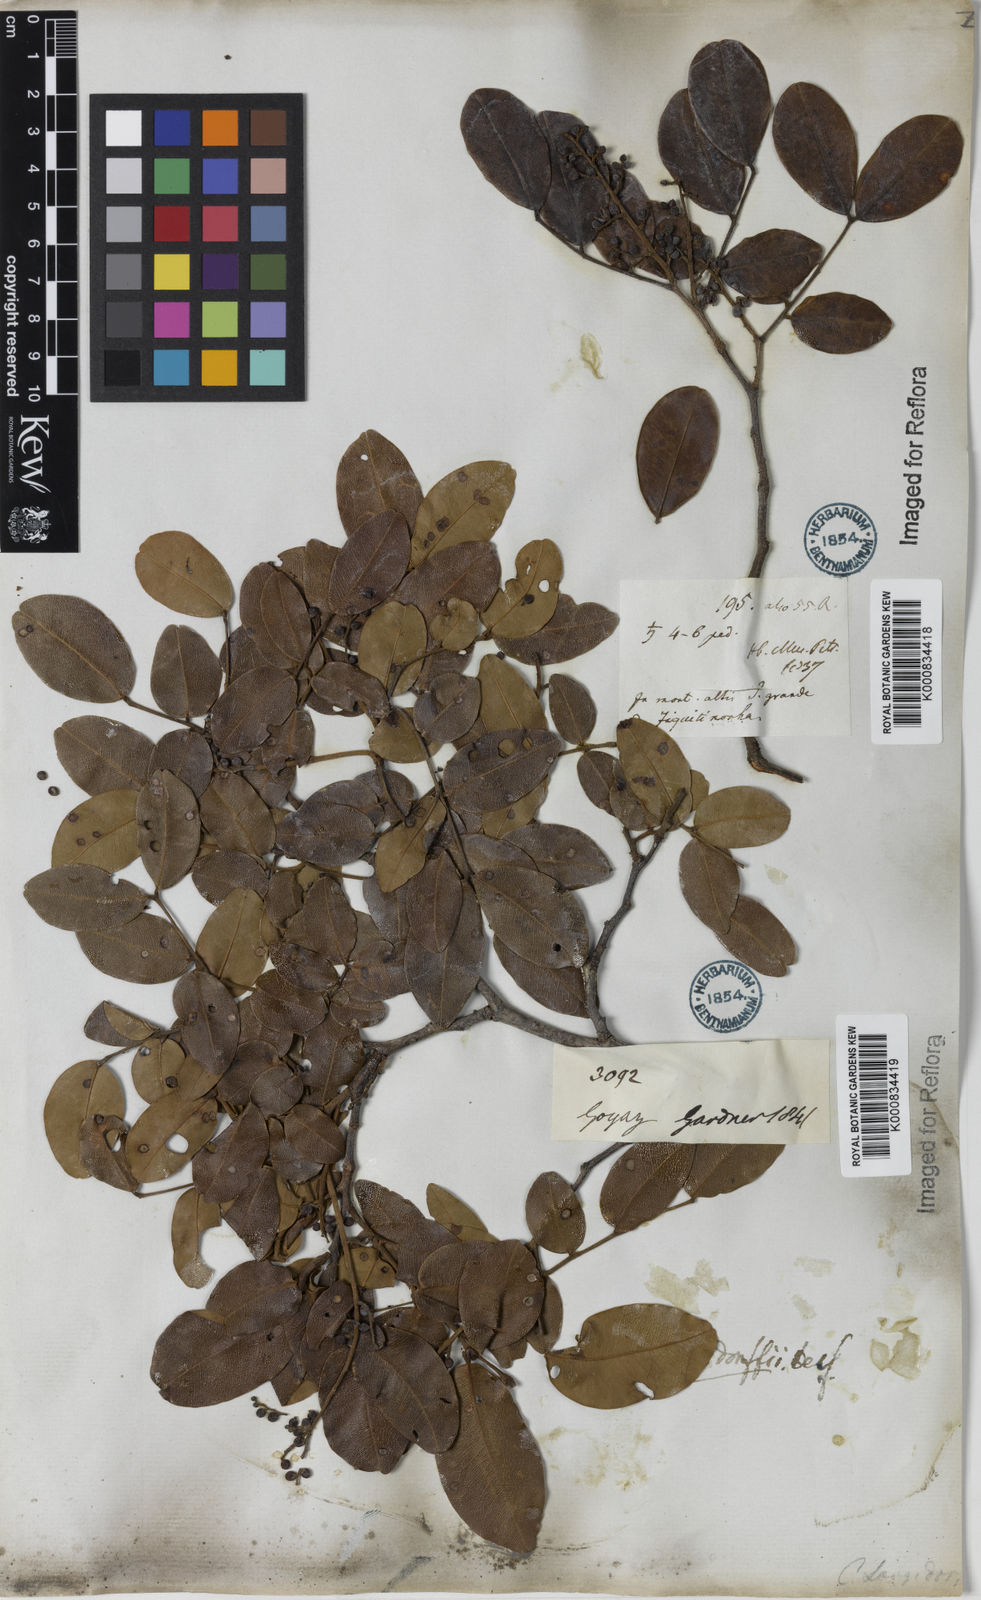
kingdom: Plantae
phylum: Tracheophyta
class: Magnoliopsida
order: Fabales
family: Fabaceae
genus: Copaifera
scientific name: Copaifera langsdorffii
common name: Brazilian diesel tree
